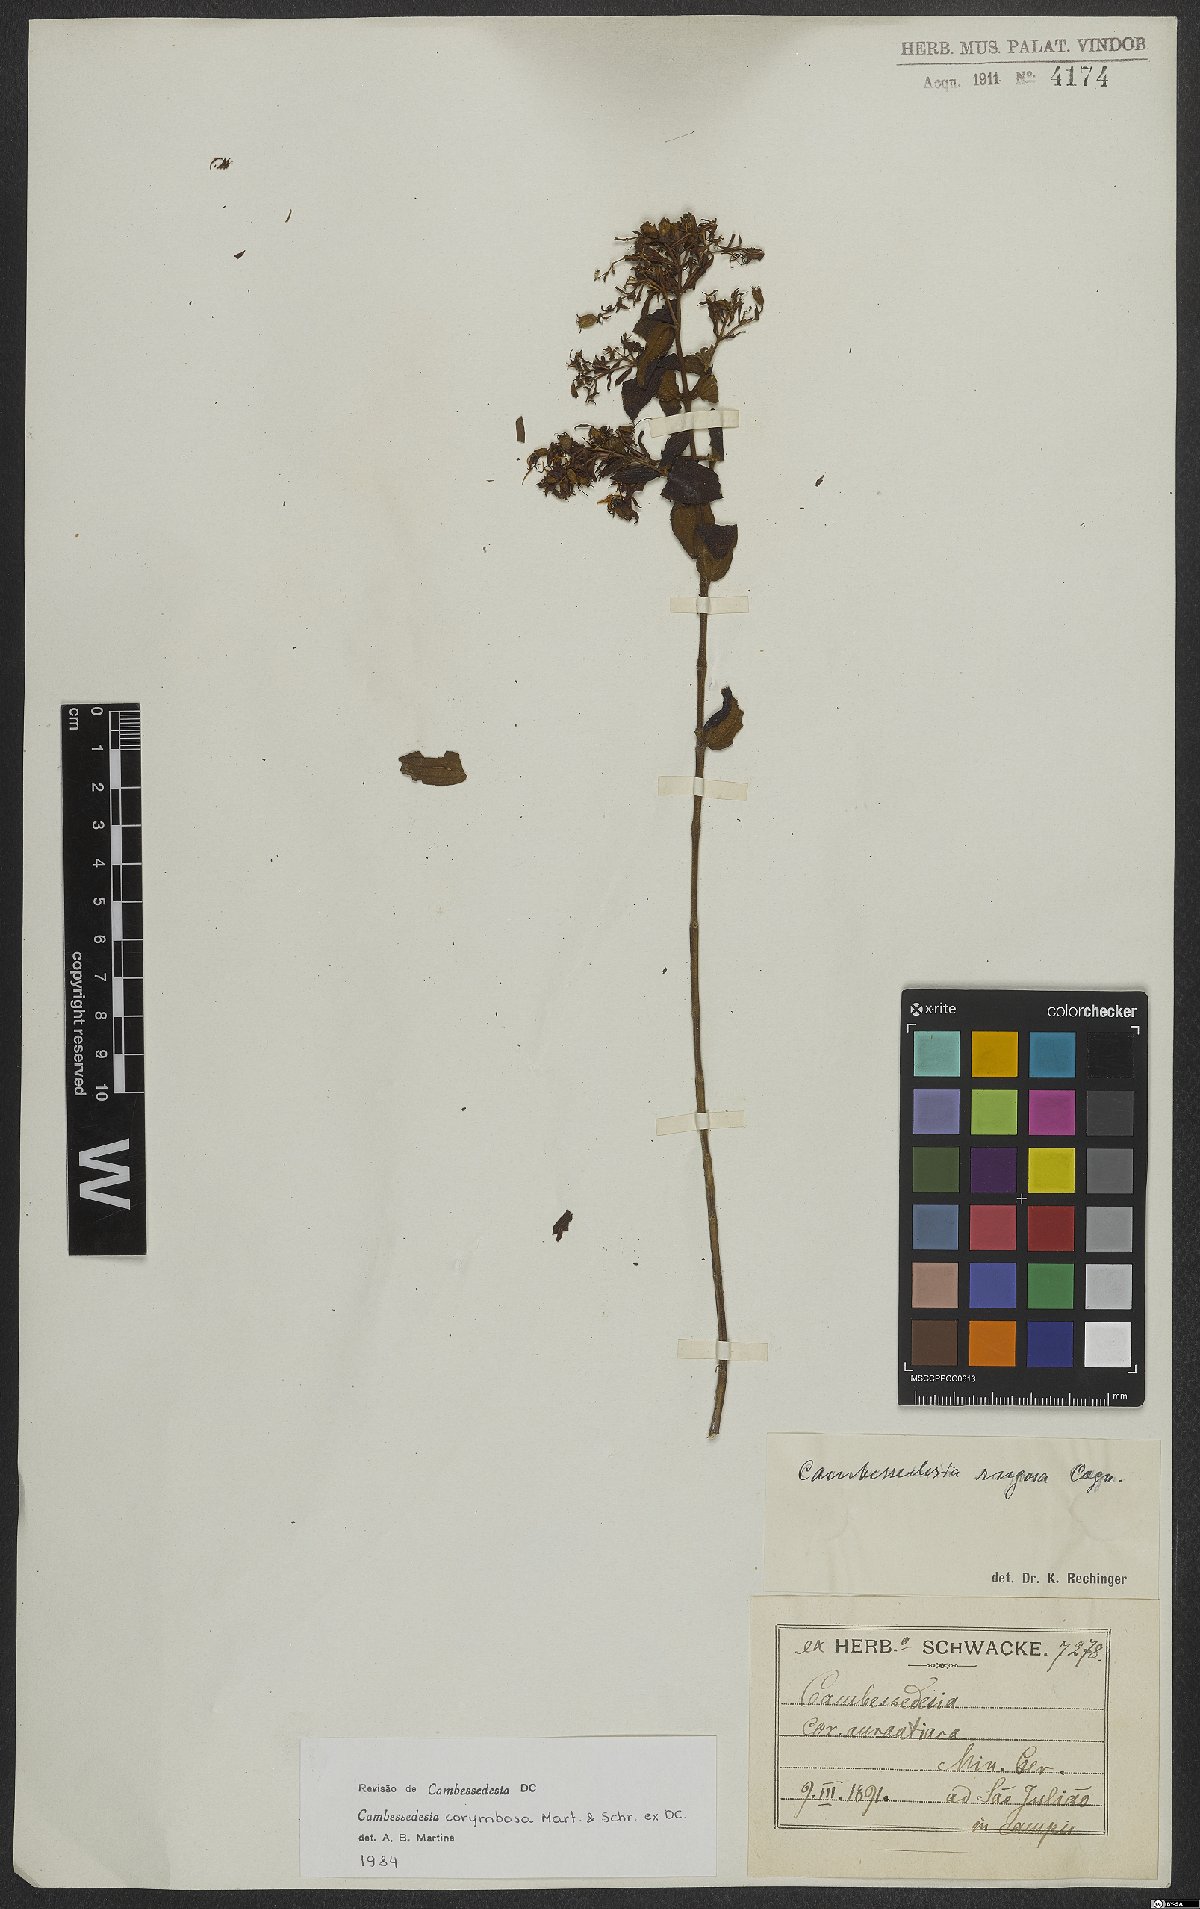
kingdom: Plantae
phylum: Tracheophyta
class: Magnoliopsida
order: Myrtales
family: Melastomataceae
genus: Cambessedesia
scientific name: Cambessedesia corymbosa
